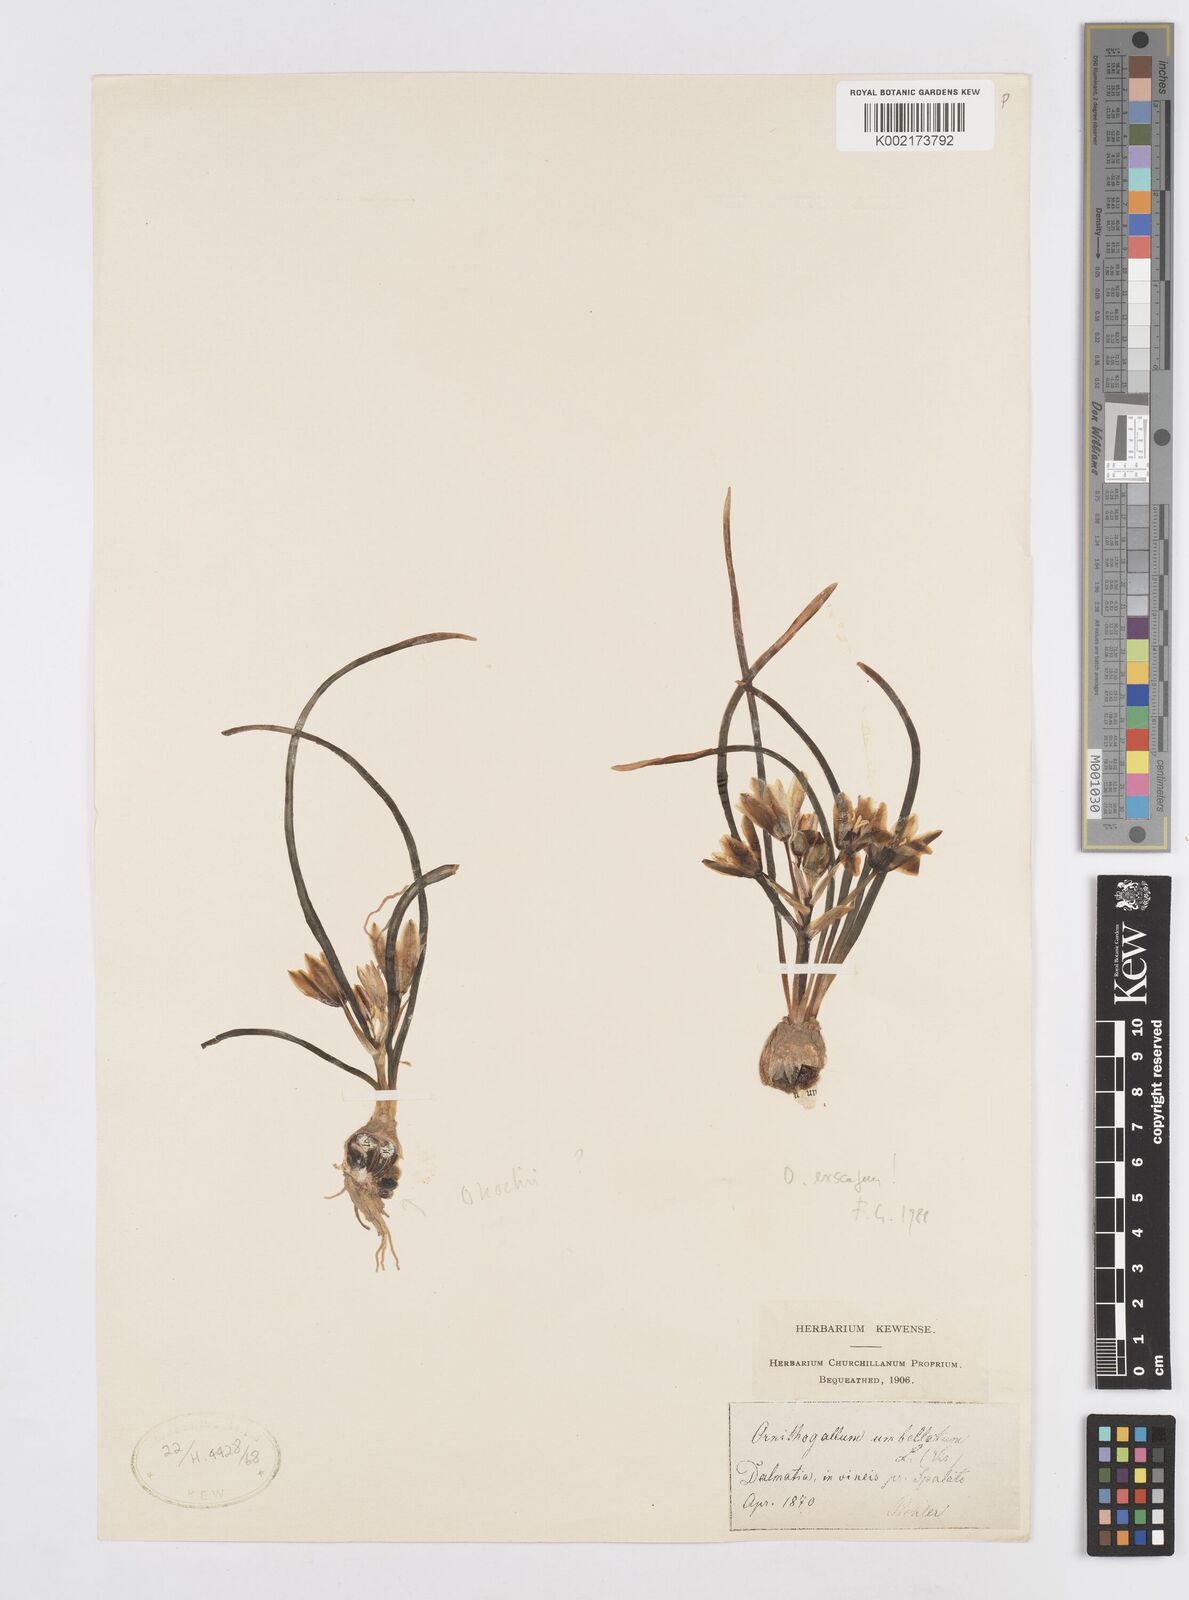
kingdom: Plantae
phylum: Tracheophyta
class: Liliopsida
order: Asparagales
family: Asparagaceae
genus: Ornithogalum
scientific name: Ornithogalum umbellatum
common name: Garden star-of-bethlehem
